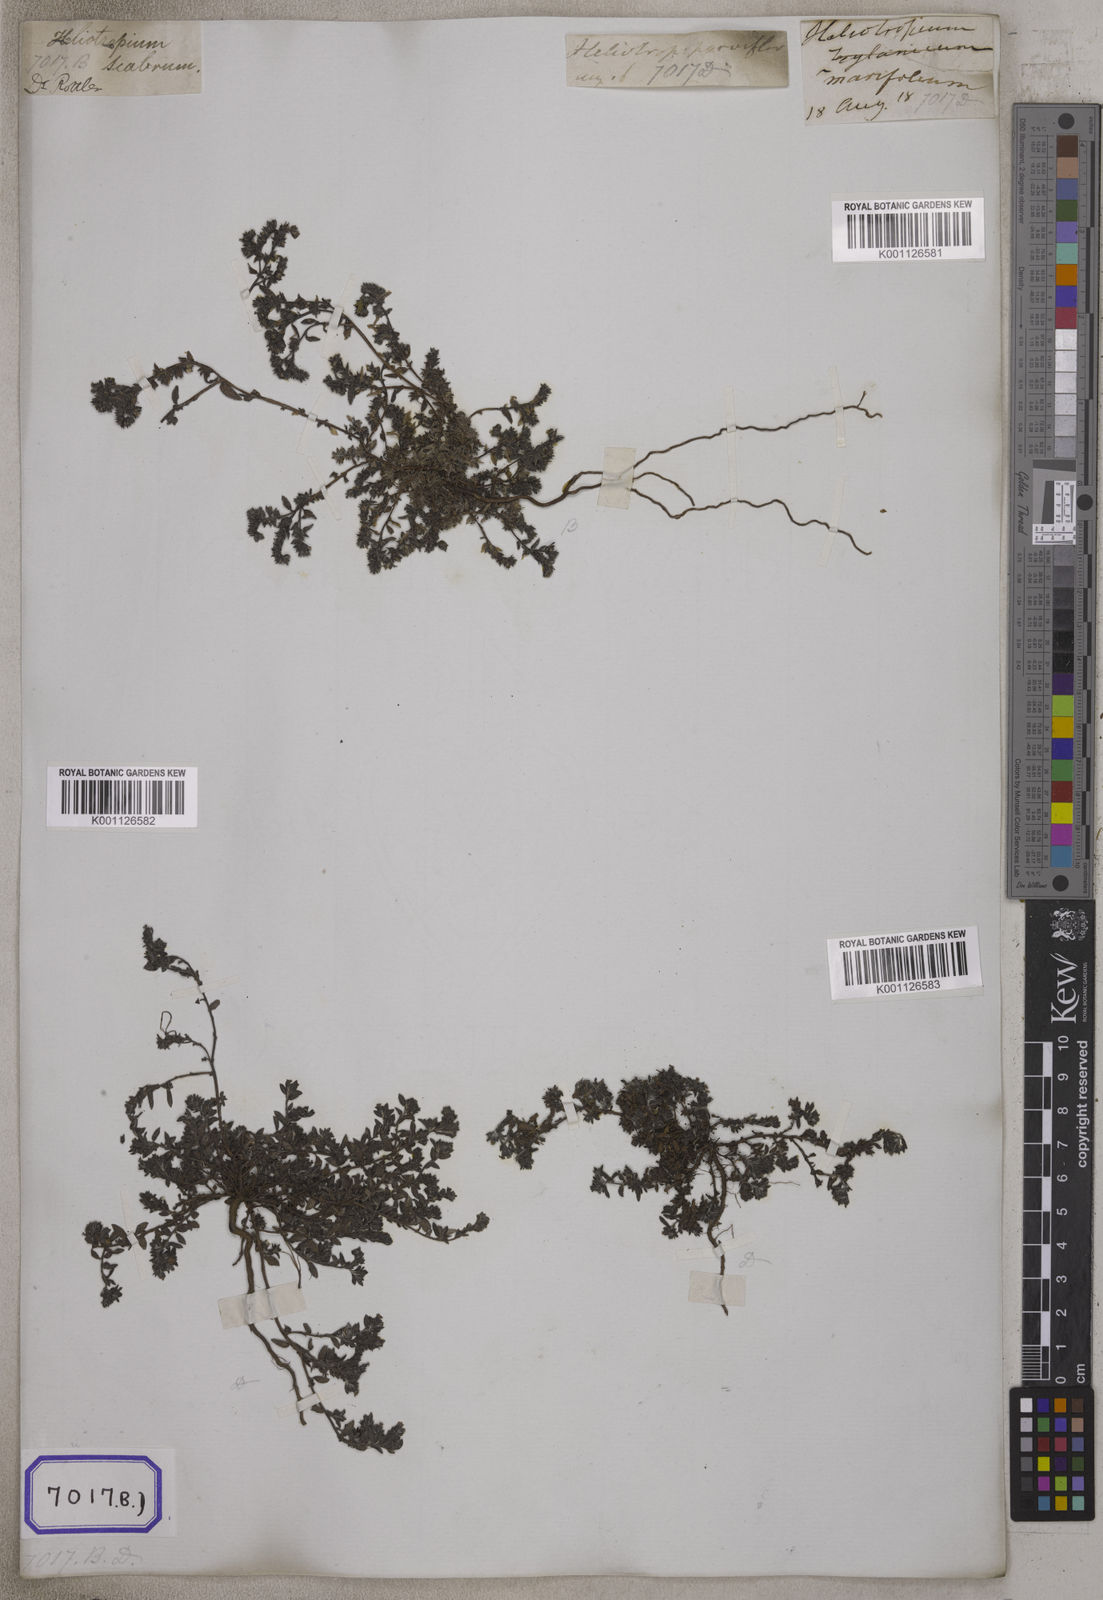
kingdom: Plantae
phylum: Tracheophyta
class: Magnoliopsida
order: Boraginales
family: Heliotropiaceae
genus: Euploca
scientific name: Euploca marifolia
